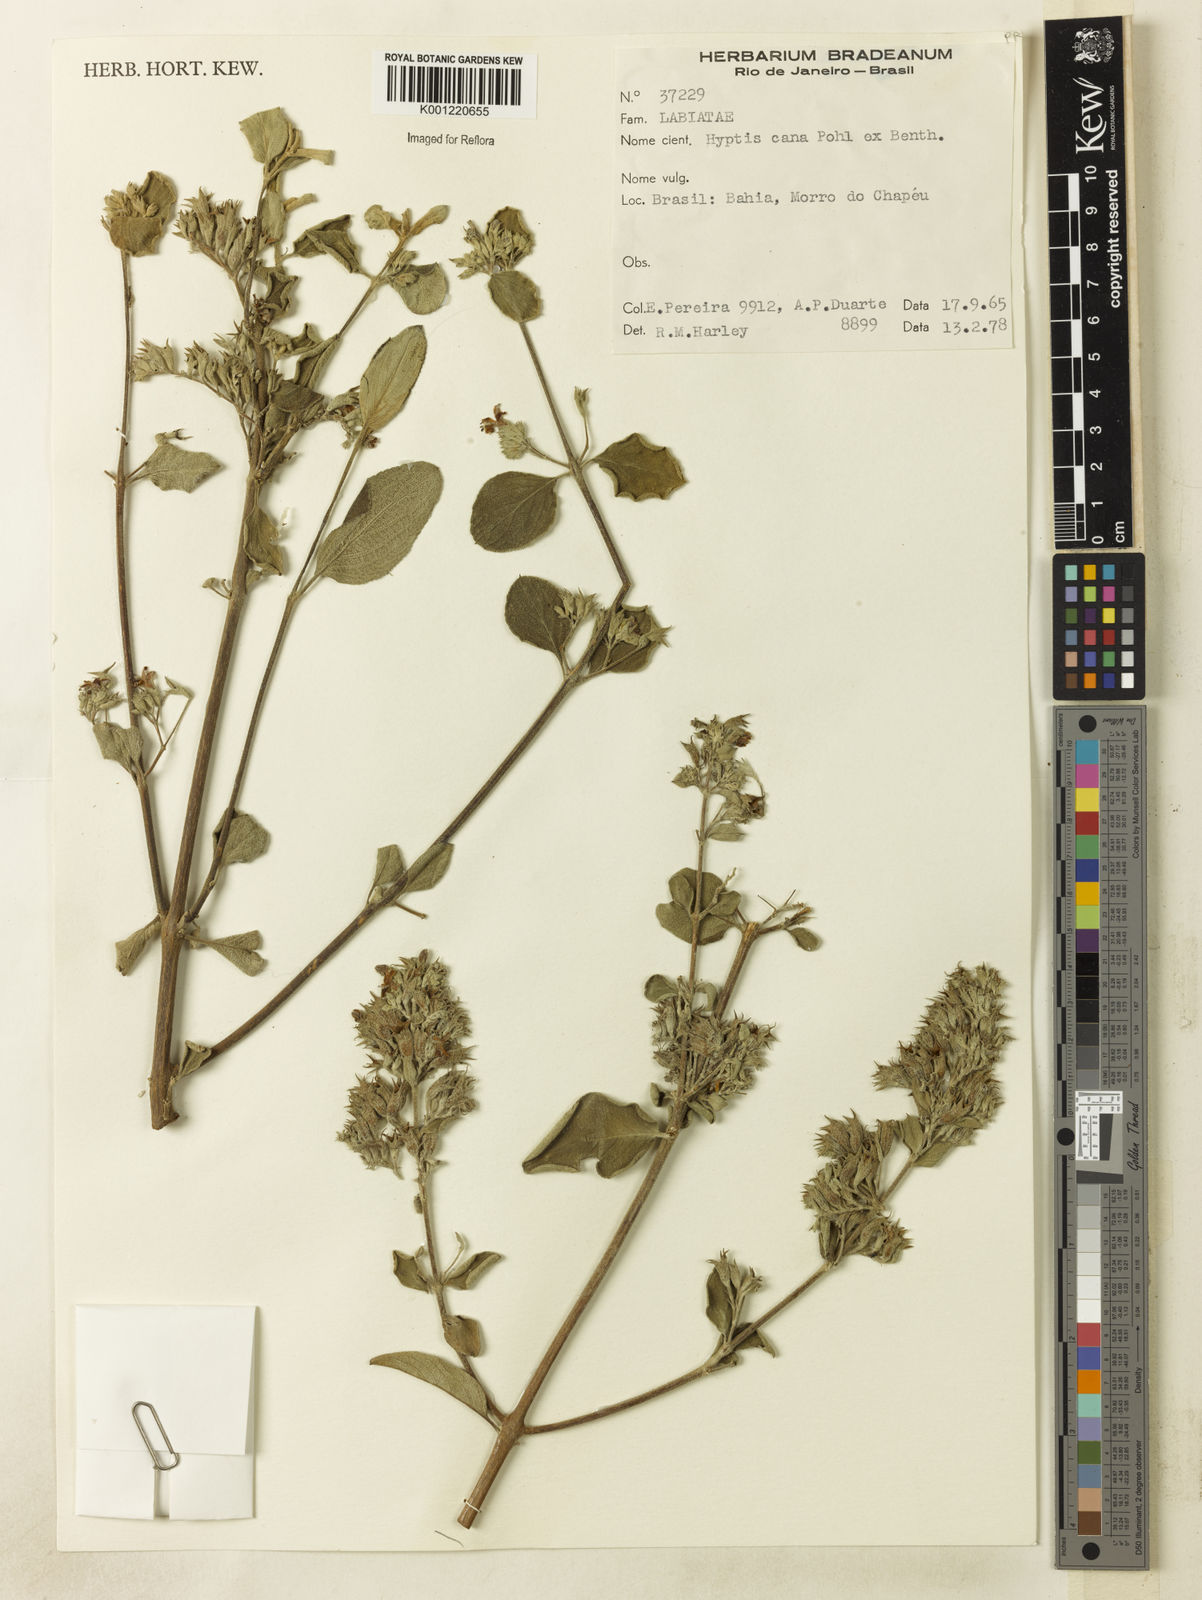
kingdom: Plantae
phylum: Tracheophyta
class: Magnoliopsida
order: Lamiales
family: Lamiaceae
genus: Hyptidendron
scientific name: Hyptidendron canum
